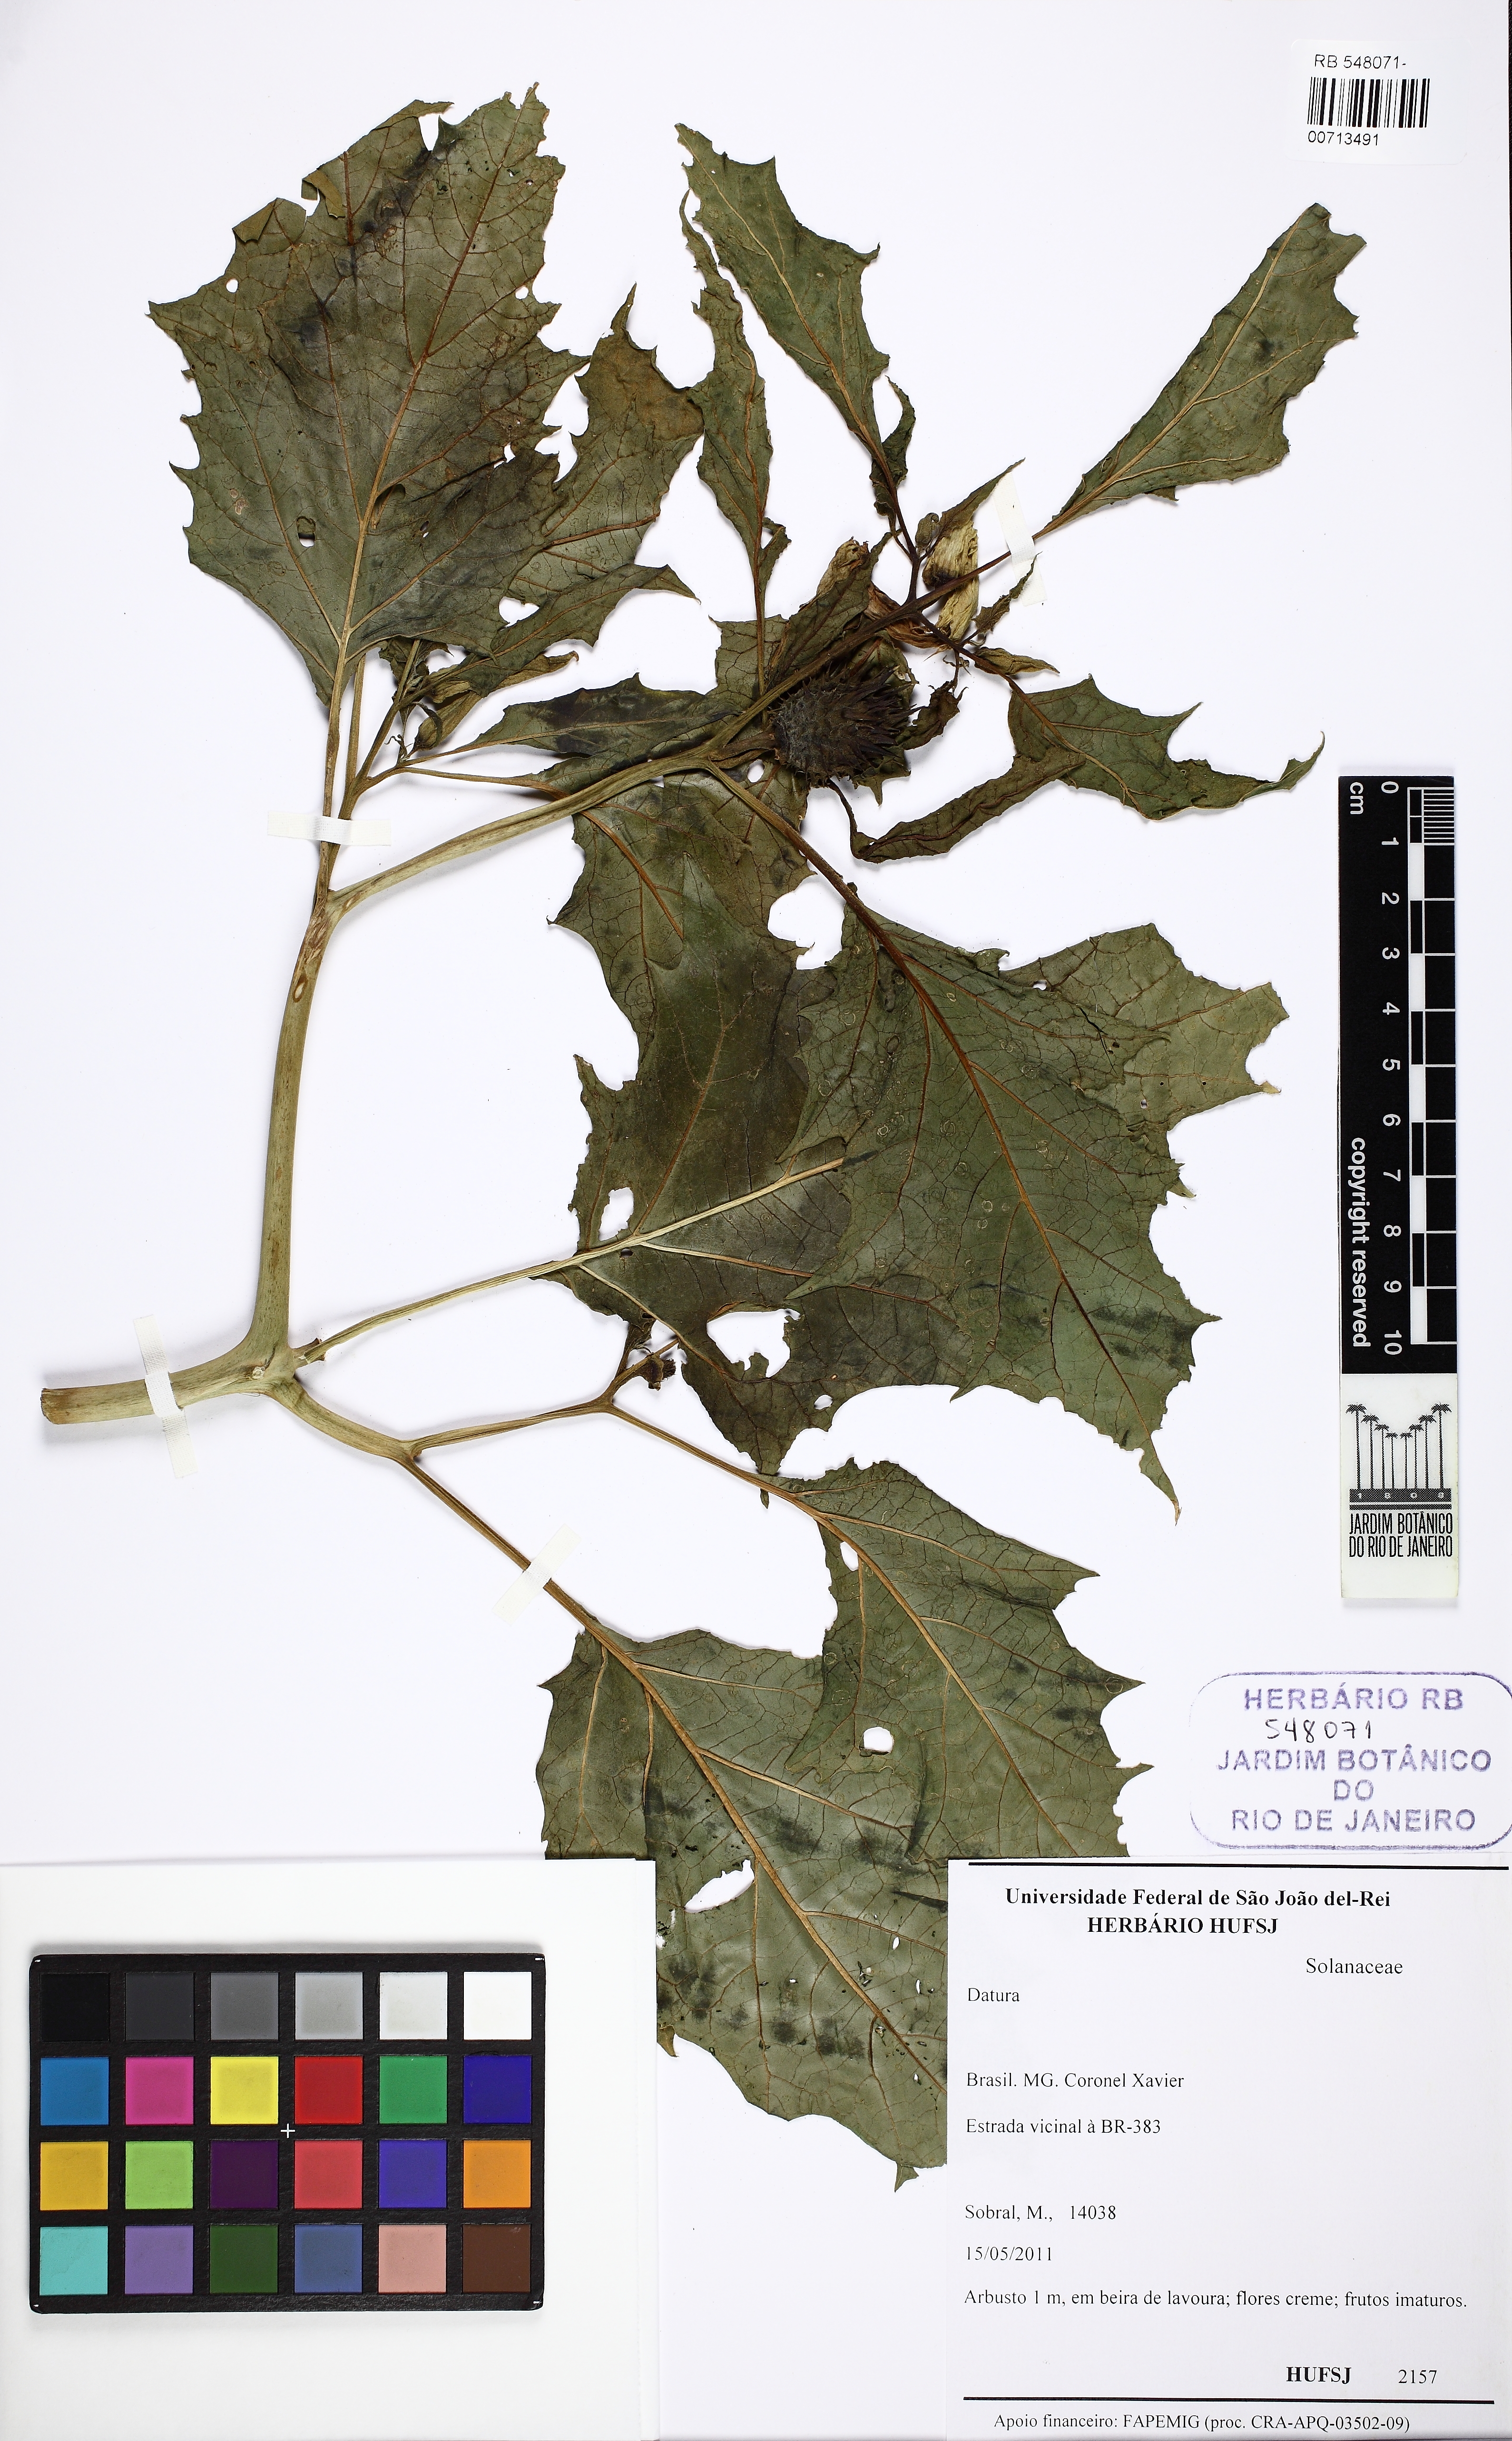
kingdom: Plantae
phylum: Tracheophyta
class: Magnoliopsida
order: Solanales
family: Solanaceae
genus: Datura
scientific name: Datura ferox
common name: Angel's-trumpets
